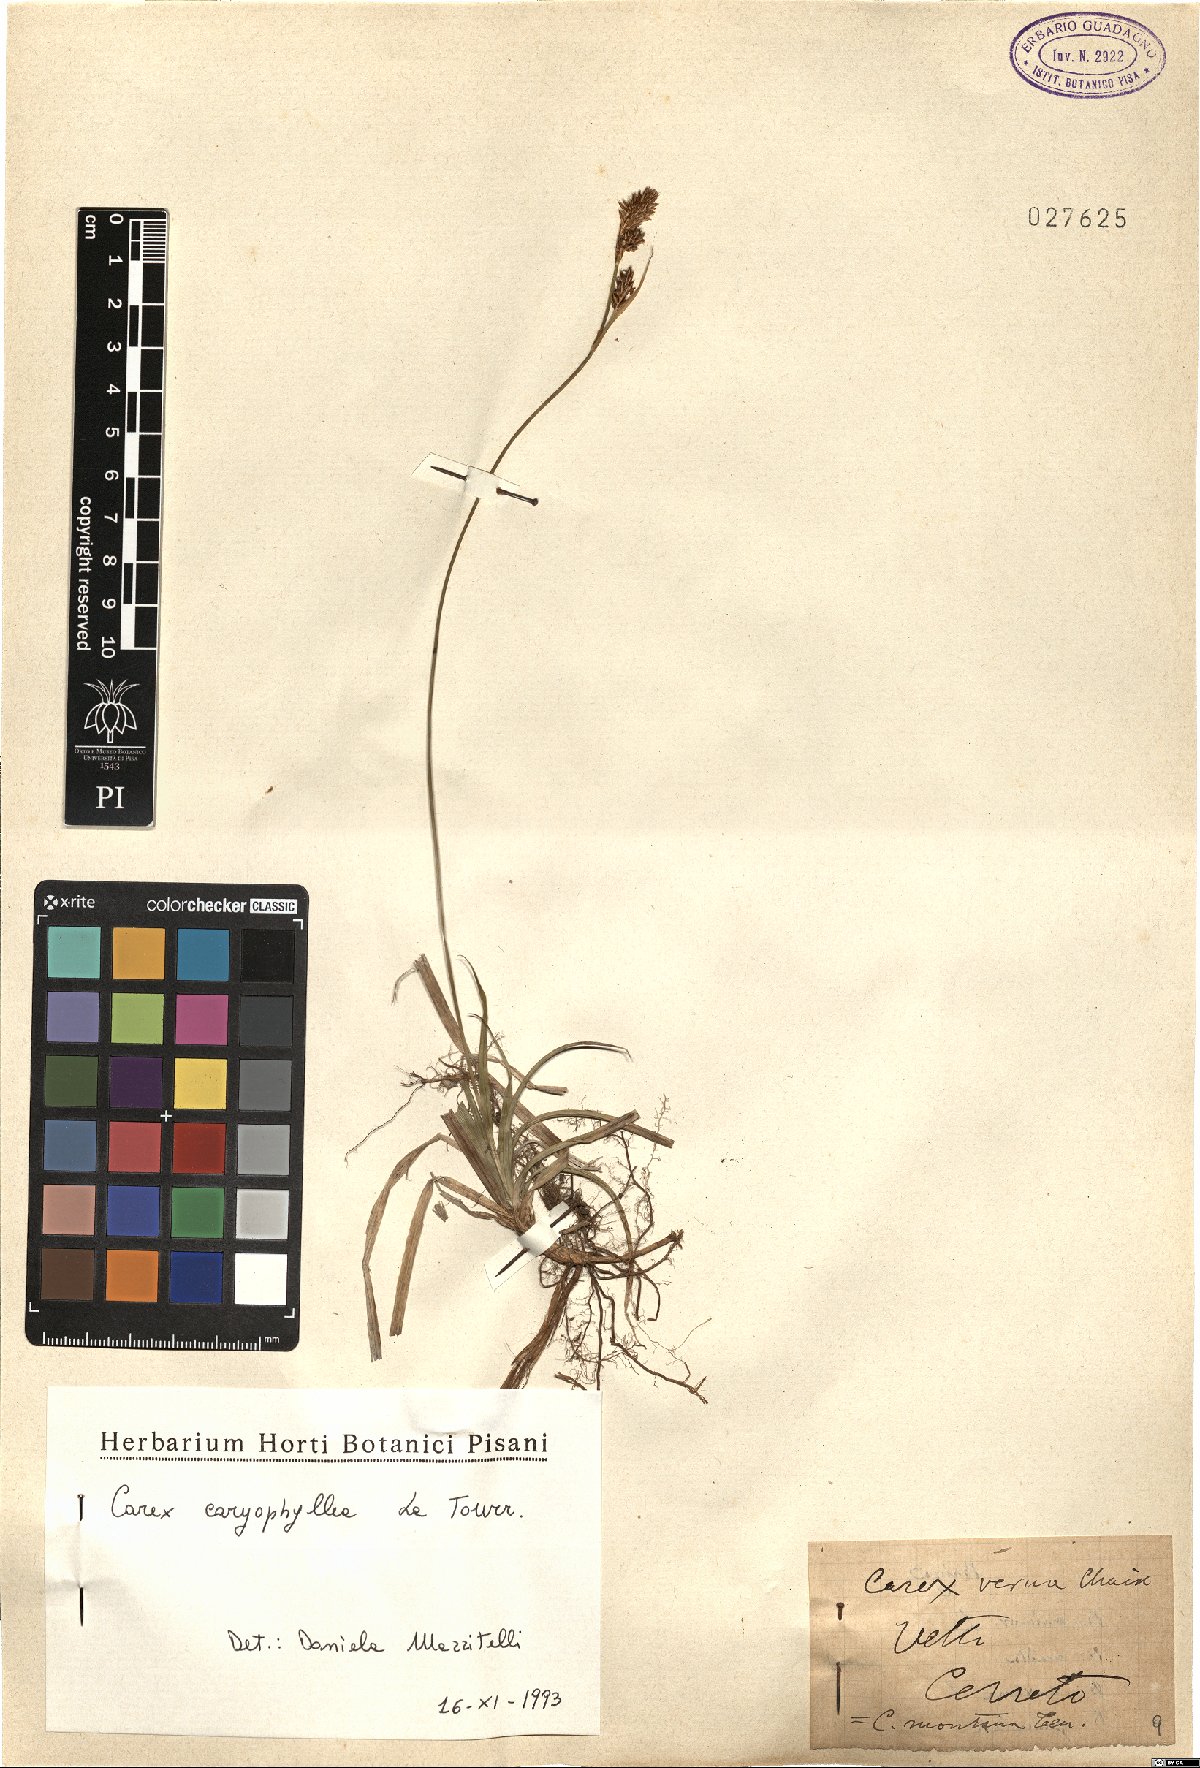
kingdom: Plantae
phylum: Tracheophyta
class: Liliopsida
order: Poales
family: Cyperaceae
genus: Carex
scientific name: Carex caryophyllea
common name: Spring sedge
